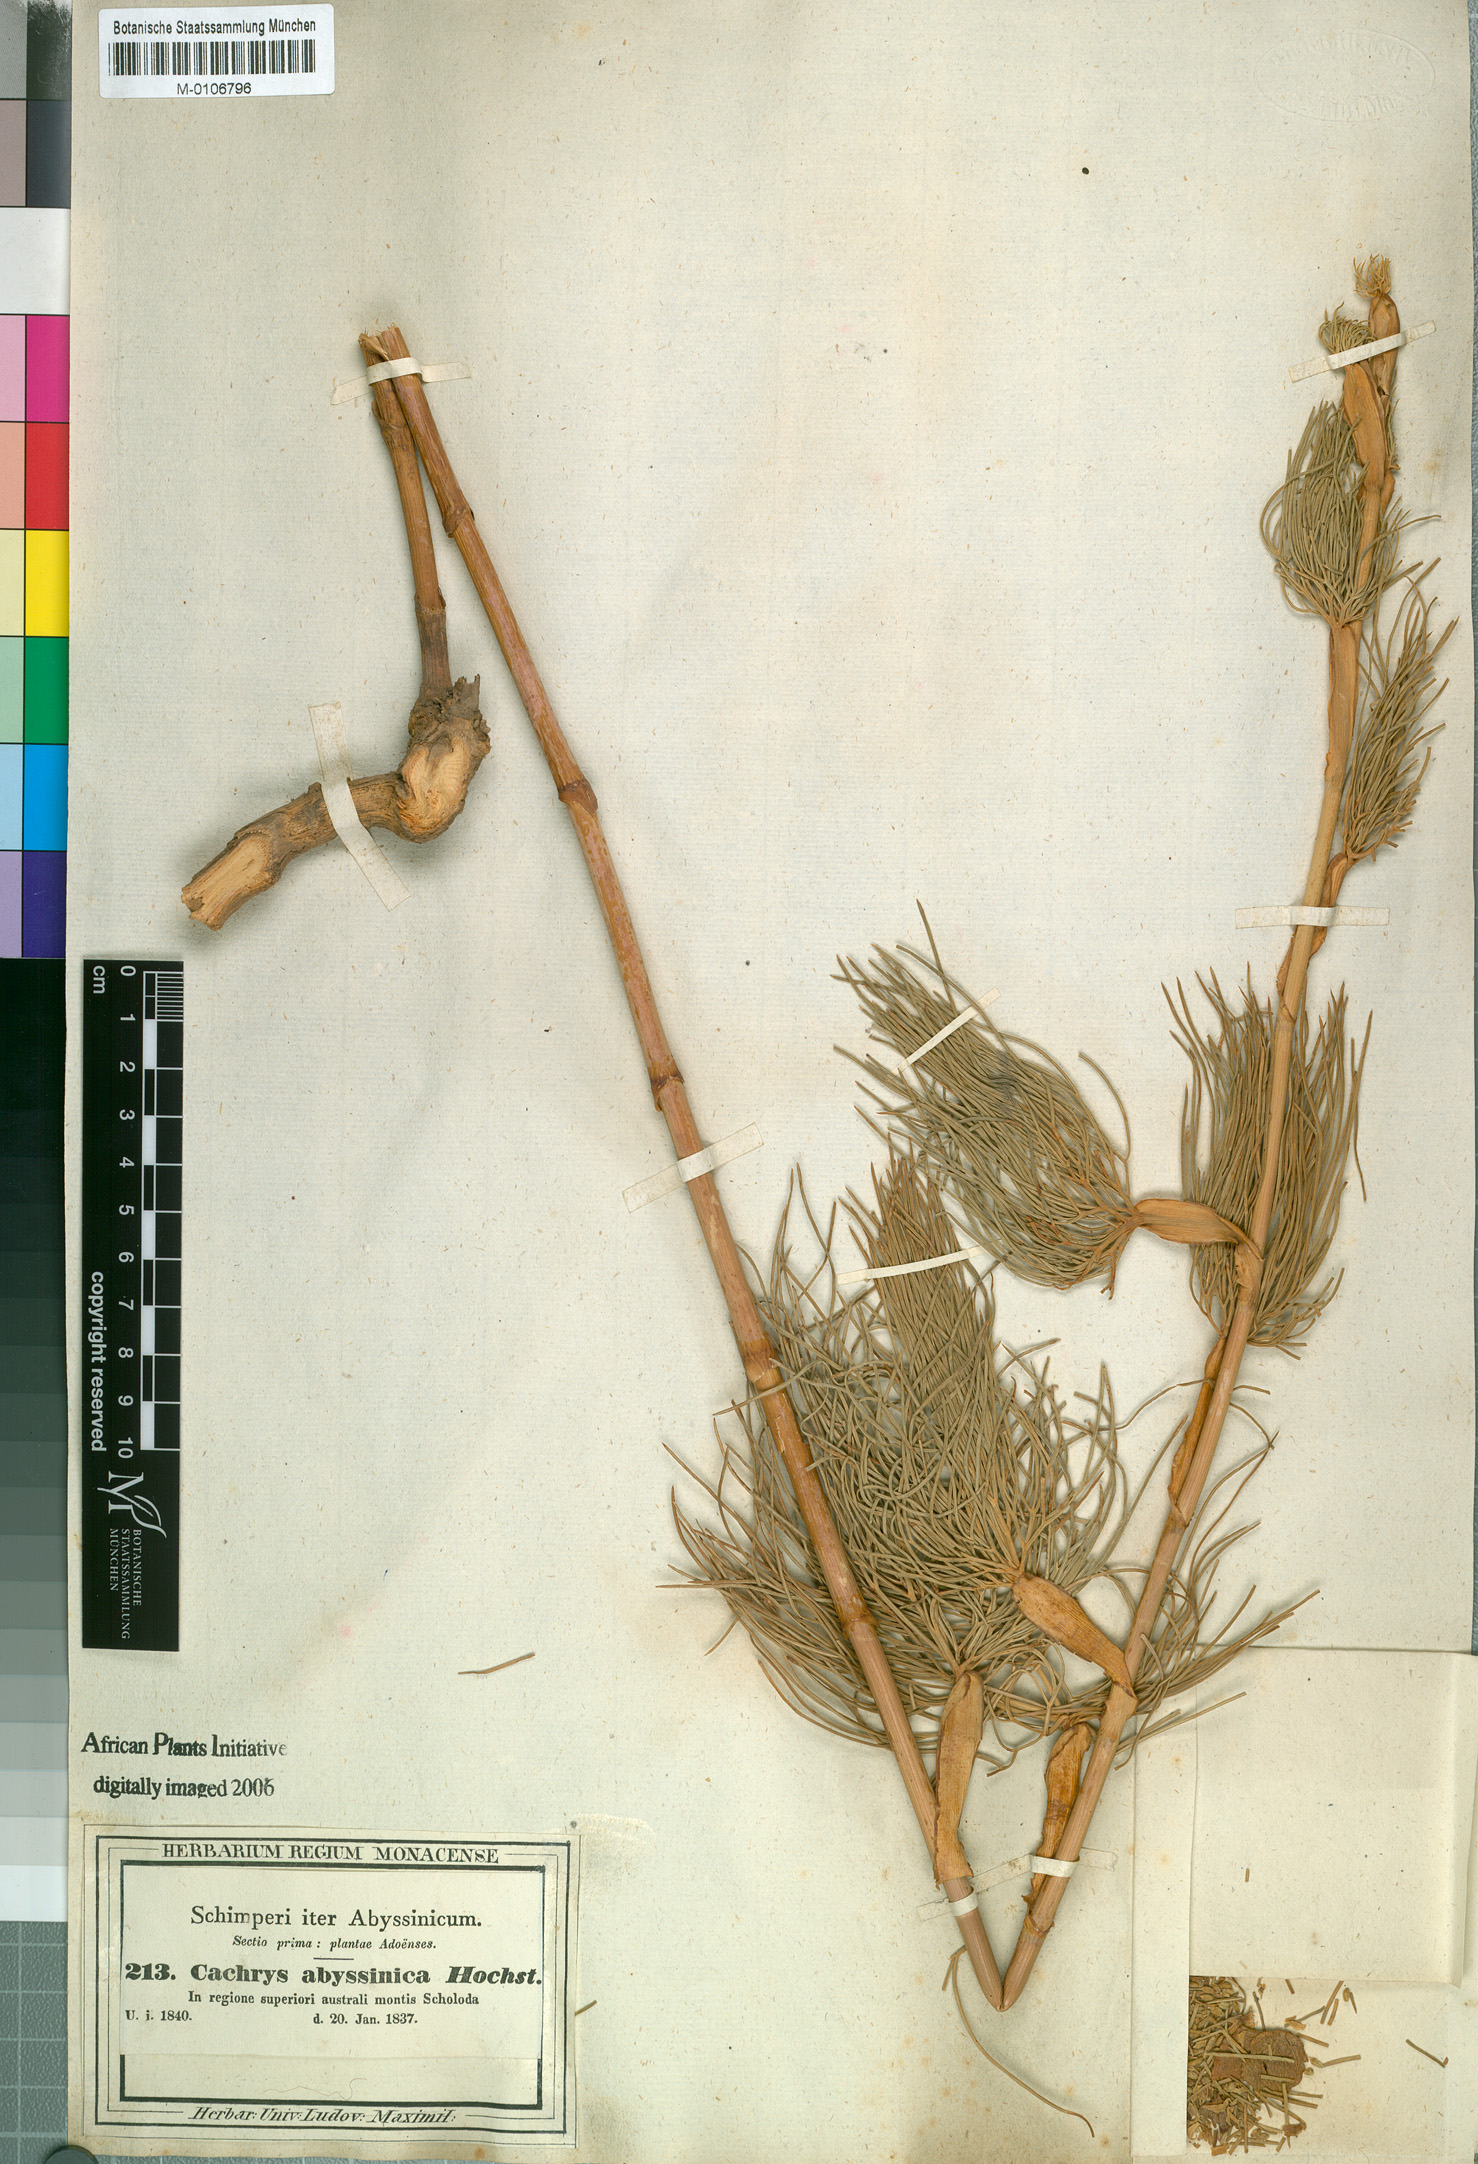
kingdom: Plantae
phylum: Tracheophyta
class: Magnoliopsida
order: Apiales
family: Apiaceae
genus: Diplolophium
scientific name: Diplolophium africanum
